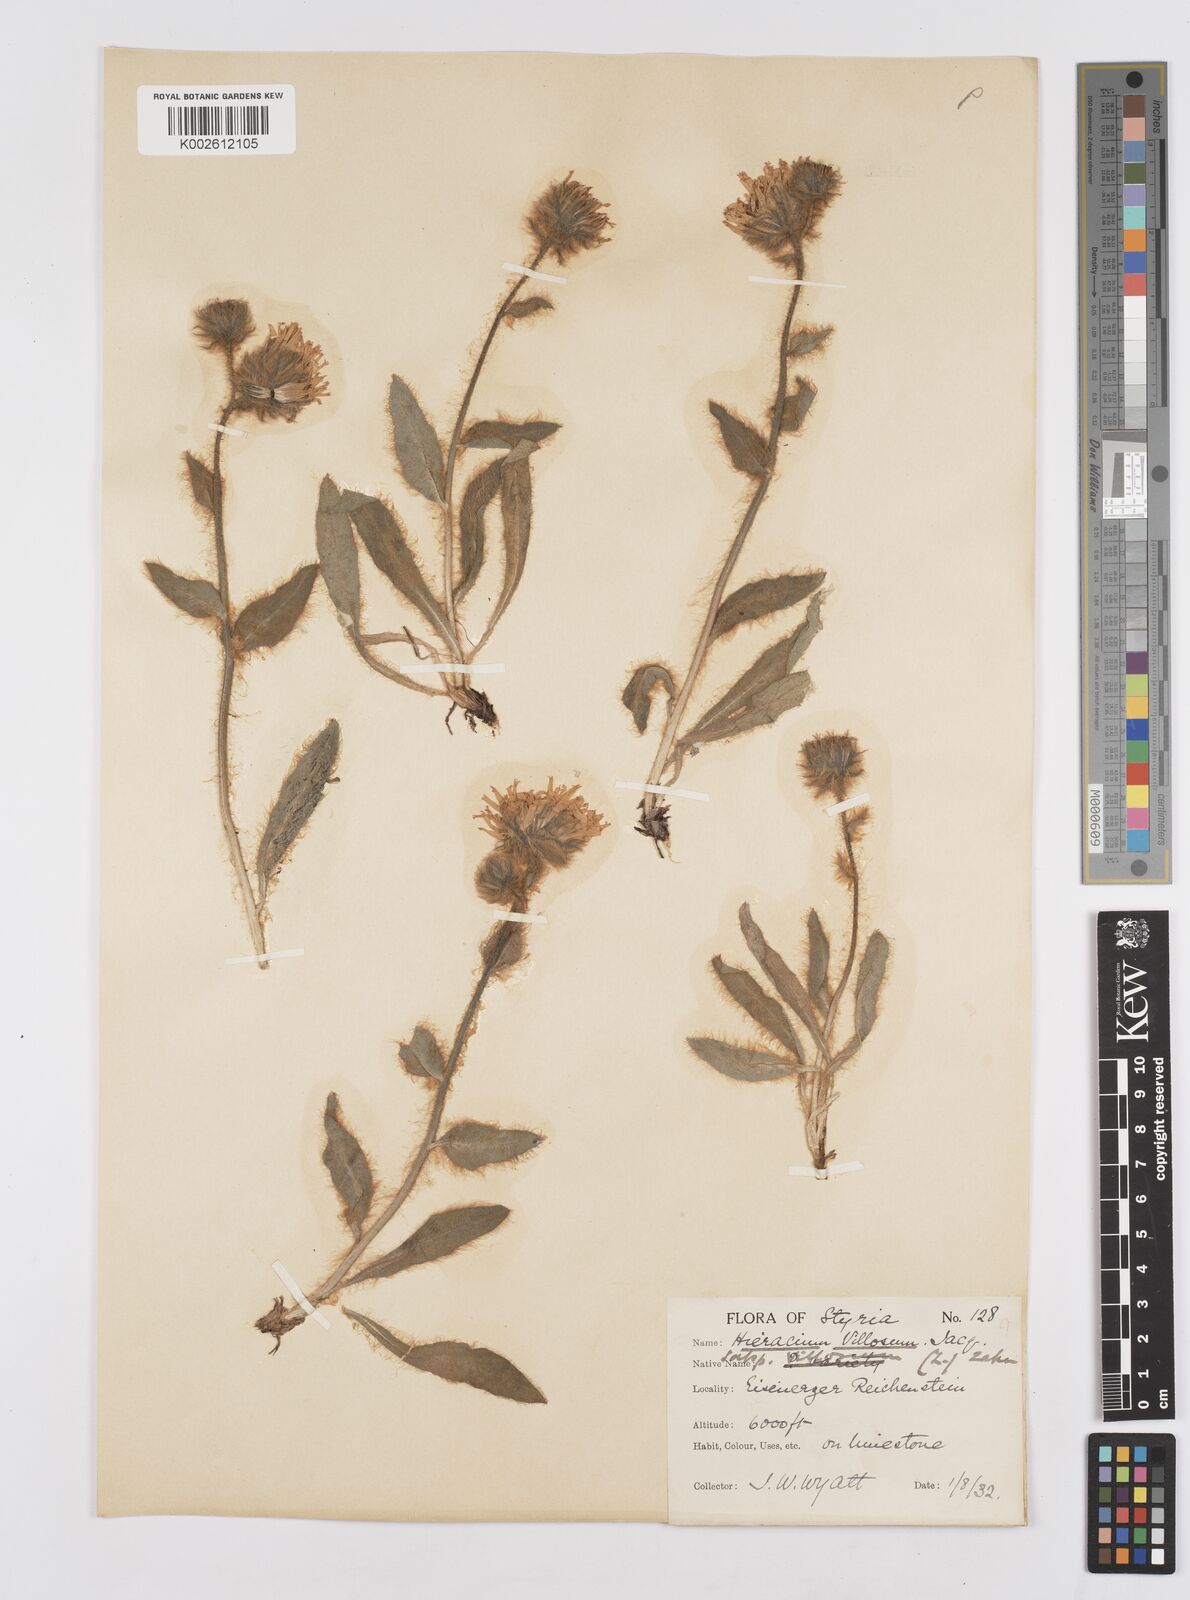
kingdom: Plantae
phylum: Tracheophyta
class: Magnoliopsida
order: Asterales
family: Asteraceae
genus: Hieracium
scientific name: Hieracium
